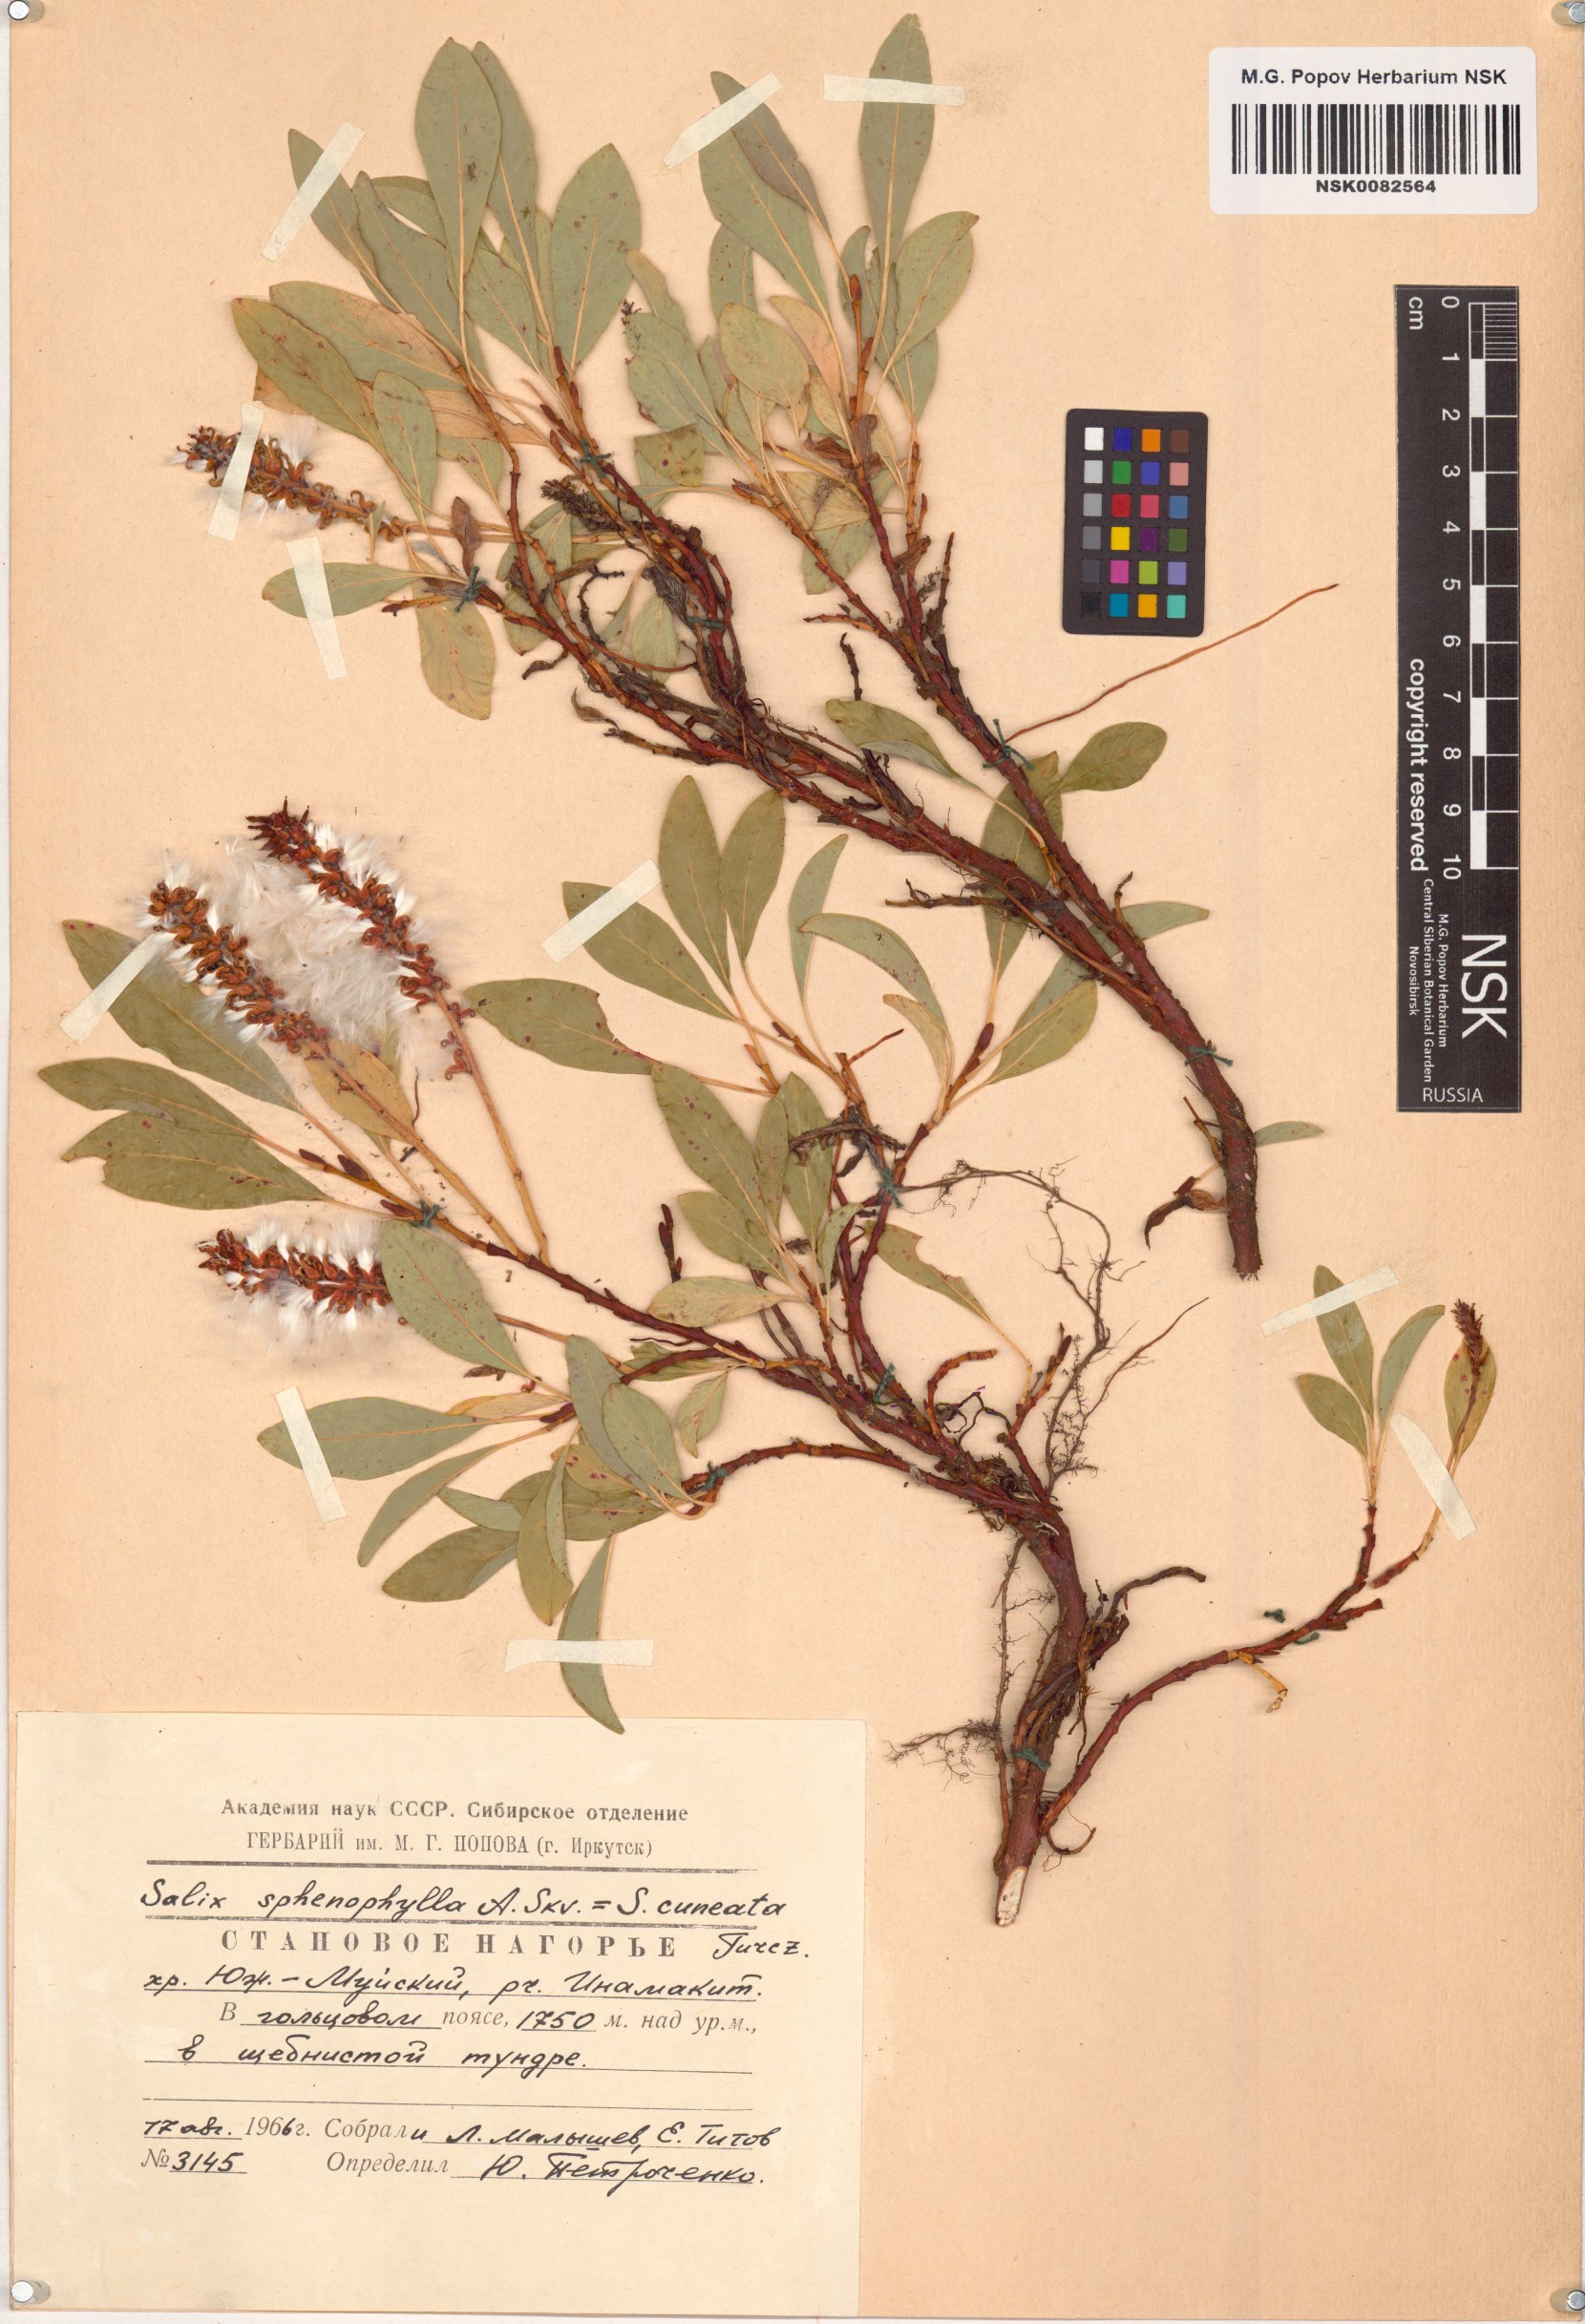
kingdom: Plantae
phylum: Tracheophyta
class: Magnoliopsida
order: Malpighiales
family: Salicaceae
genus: Salix
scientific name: Salix sphenophylla
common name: Wedge-leaved willow
